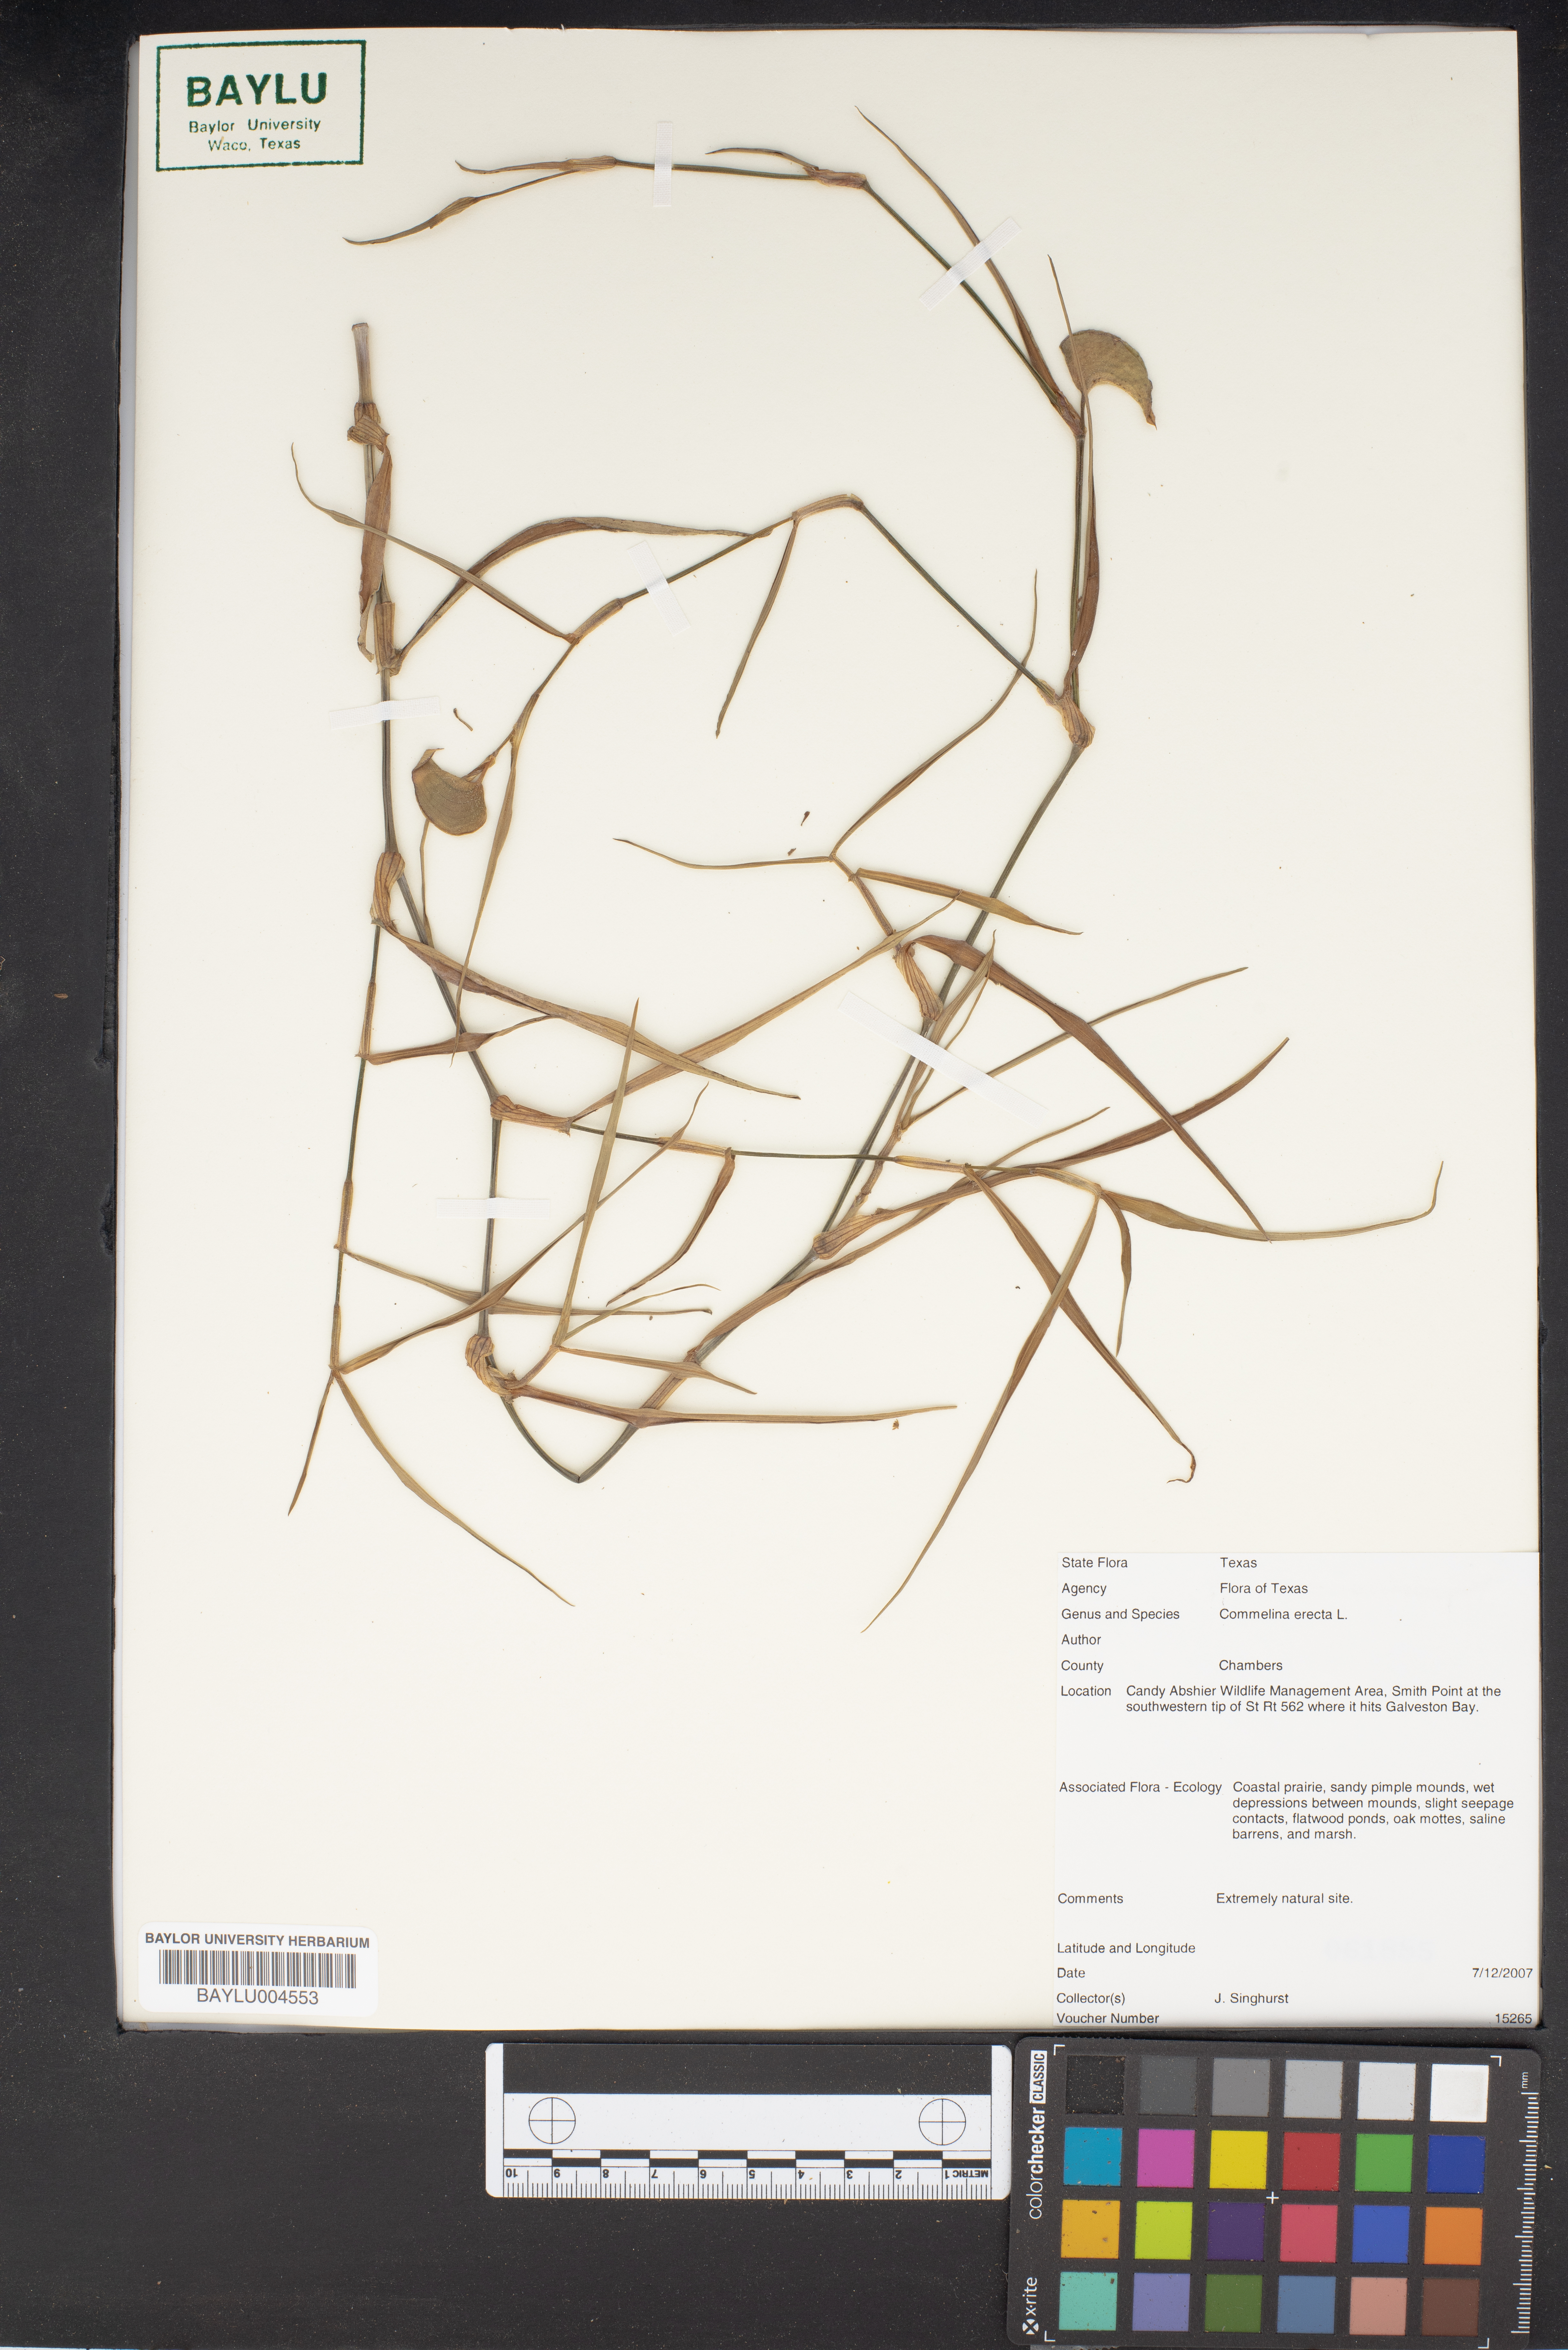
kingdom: Plantae
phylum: Tracheophyta
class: Liliopsida
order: Commelinales
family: Commelinaceae
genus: Commelina
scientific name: Commelina erecta
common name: Blousel blommetjie
